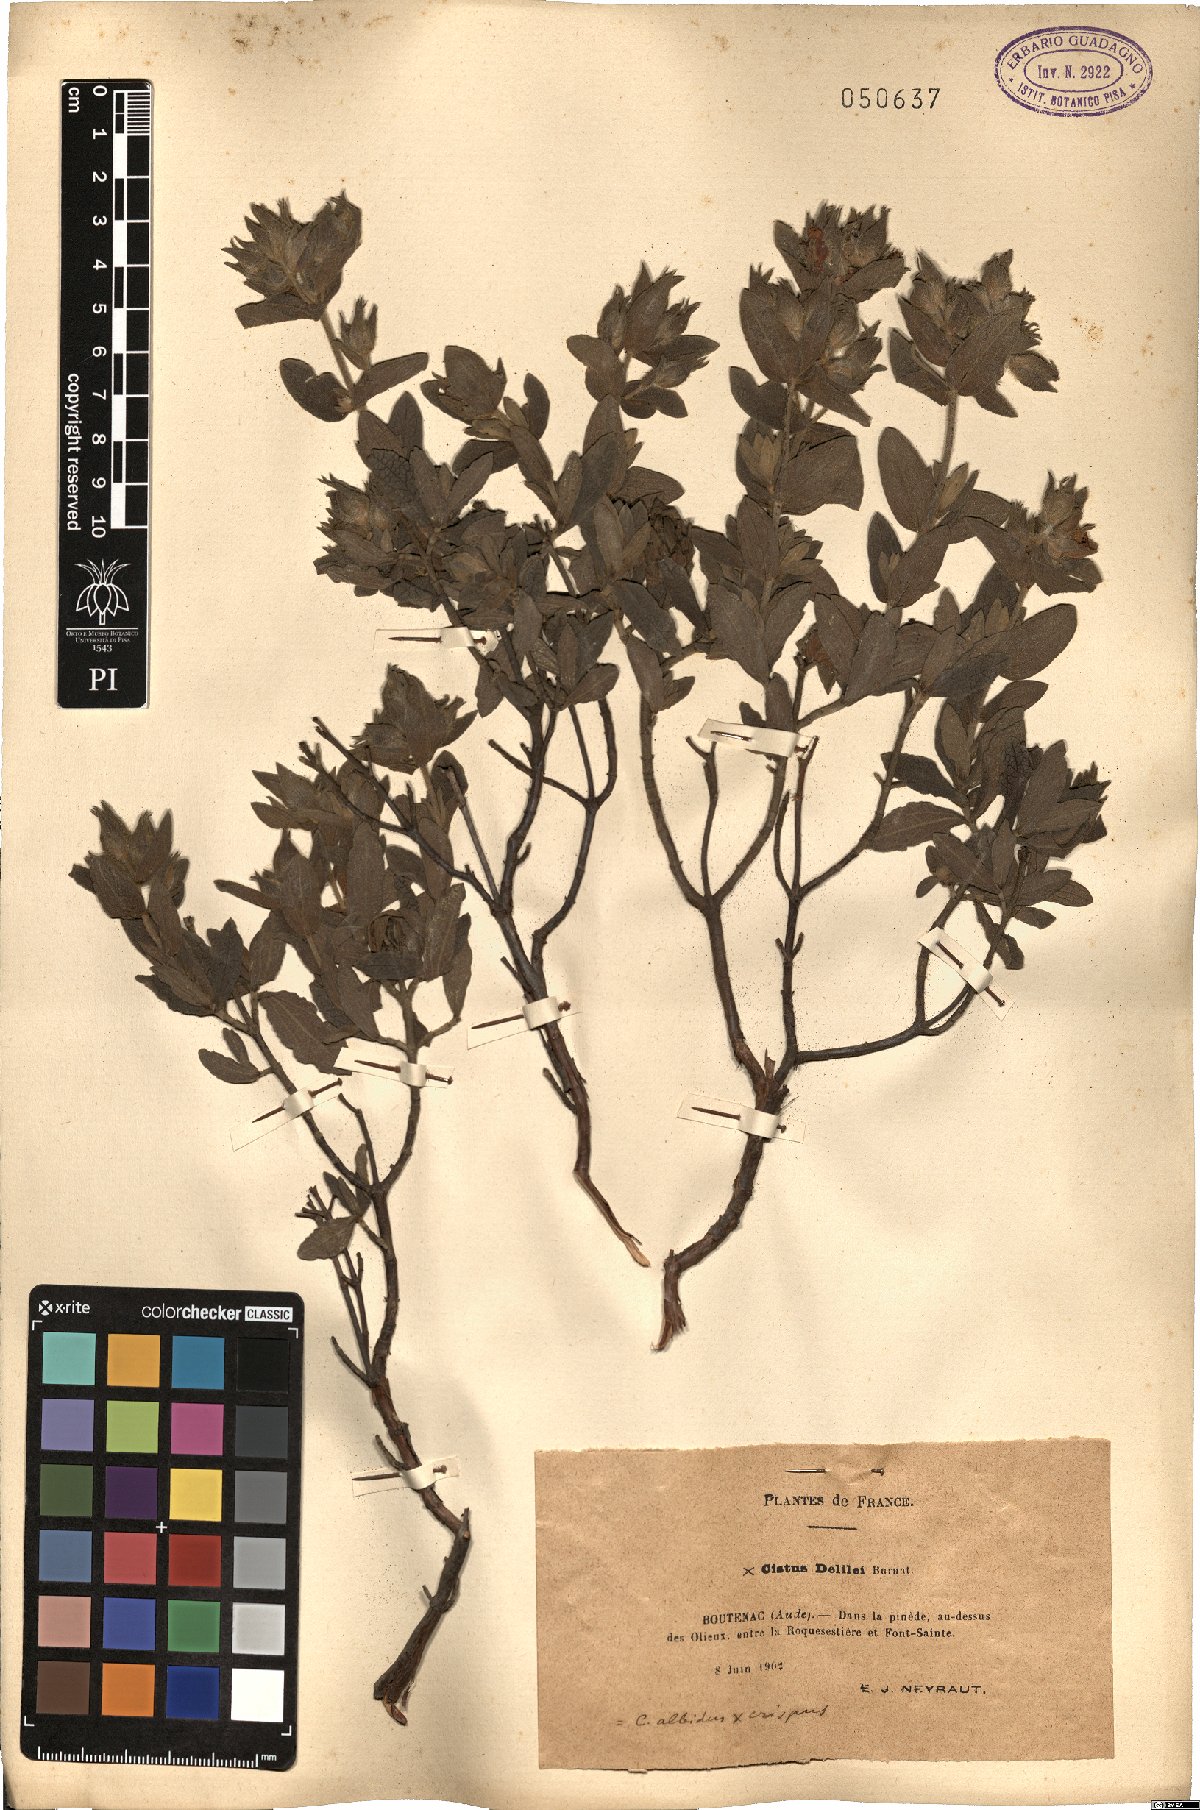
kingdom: Plantae
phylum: Tracheophyta
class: Magnoliopsida
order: Malvales
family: Cistaceae
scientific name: Cistaceae
